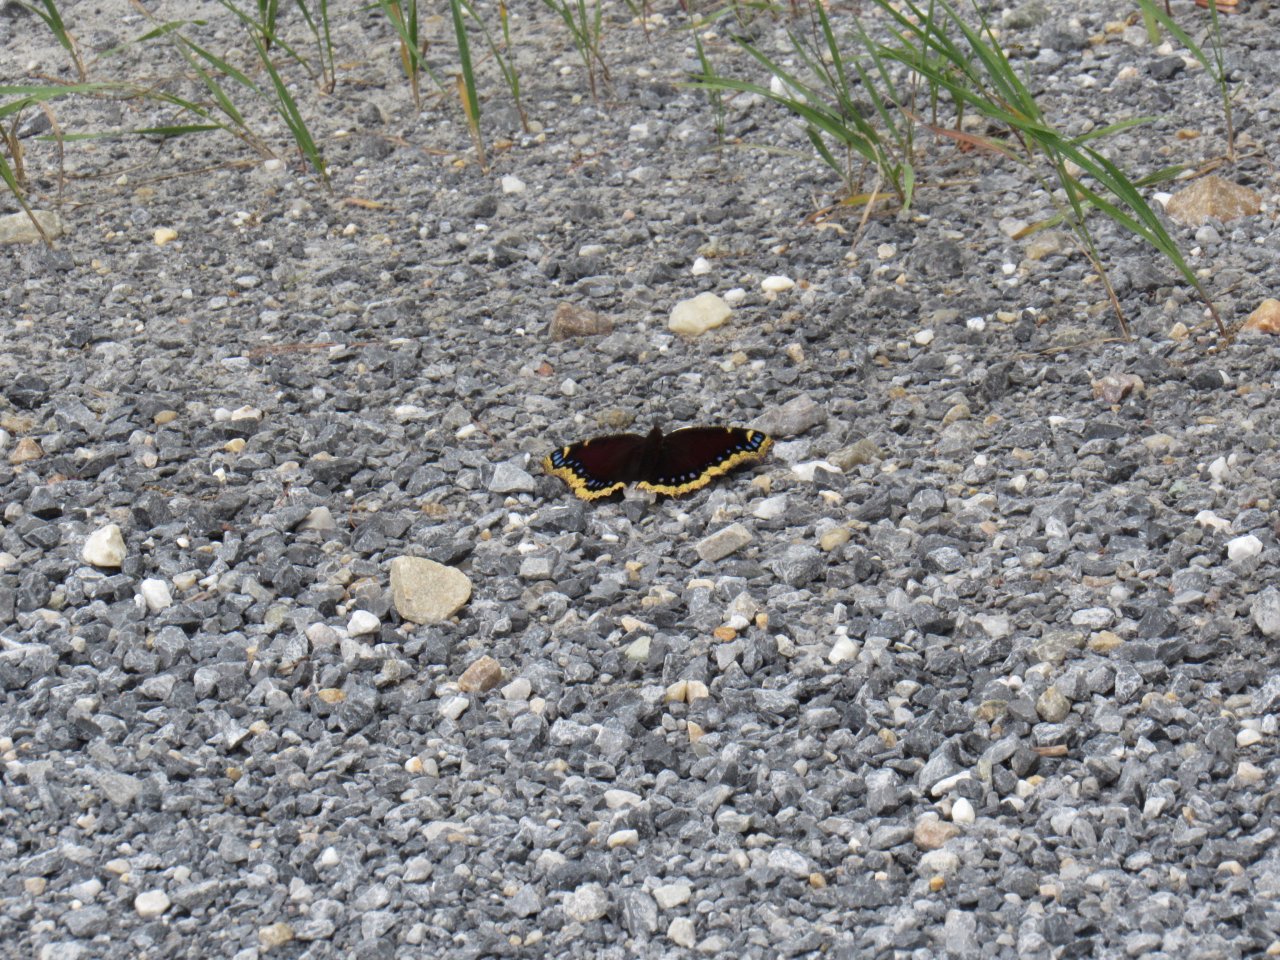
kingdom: Animalia
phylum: Arthropoda
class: Insecta
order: Lepidoptera
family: Nymphalidae
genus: Nymphalis
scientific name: Nymphalis antiopa
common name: Mourning Cloak
